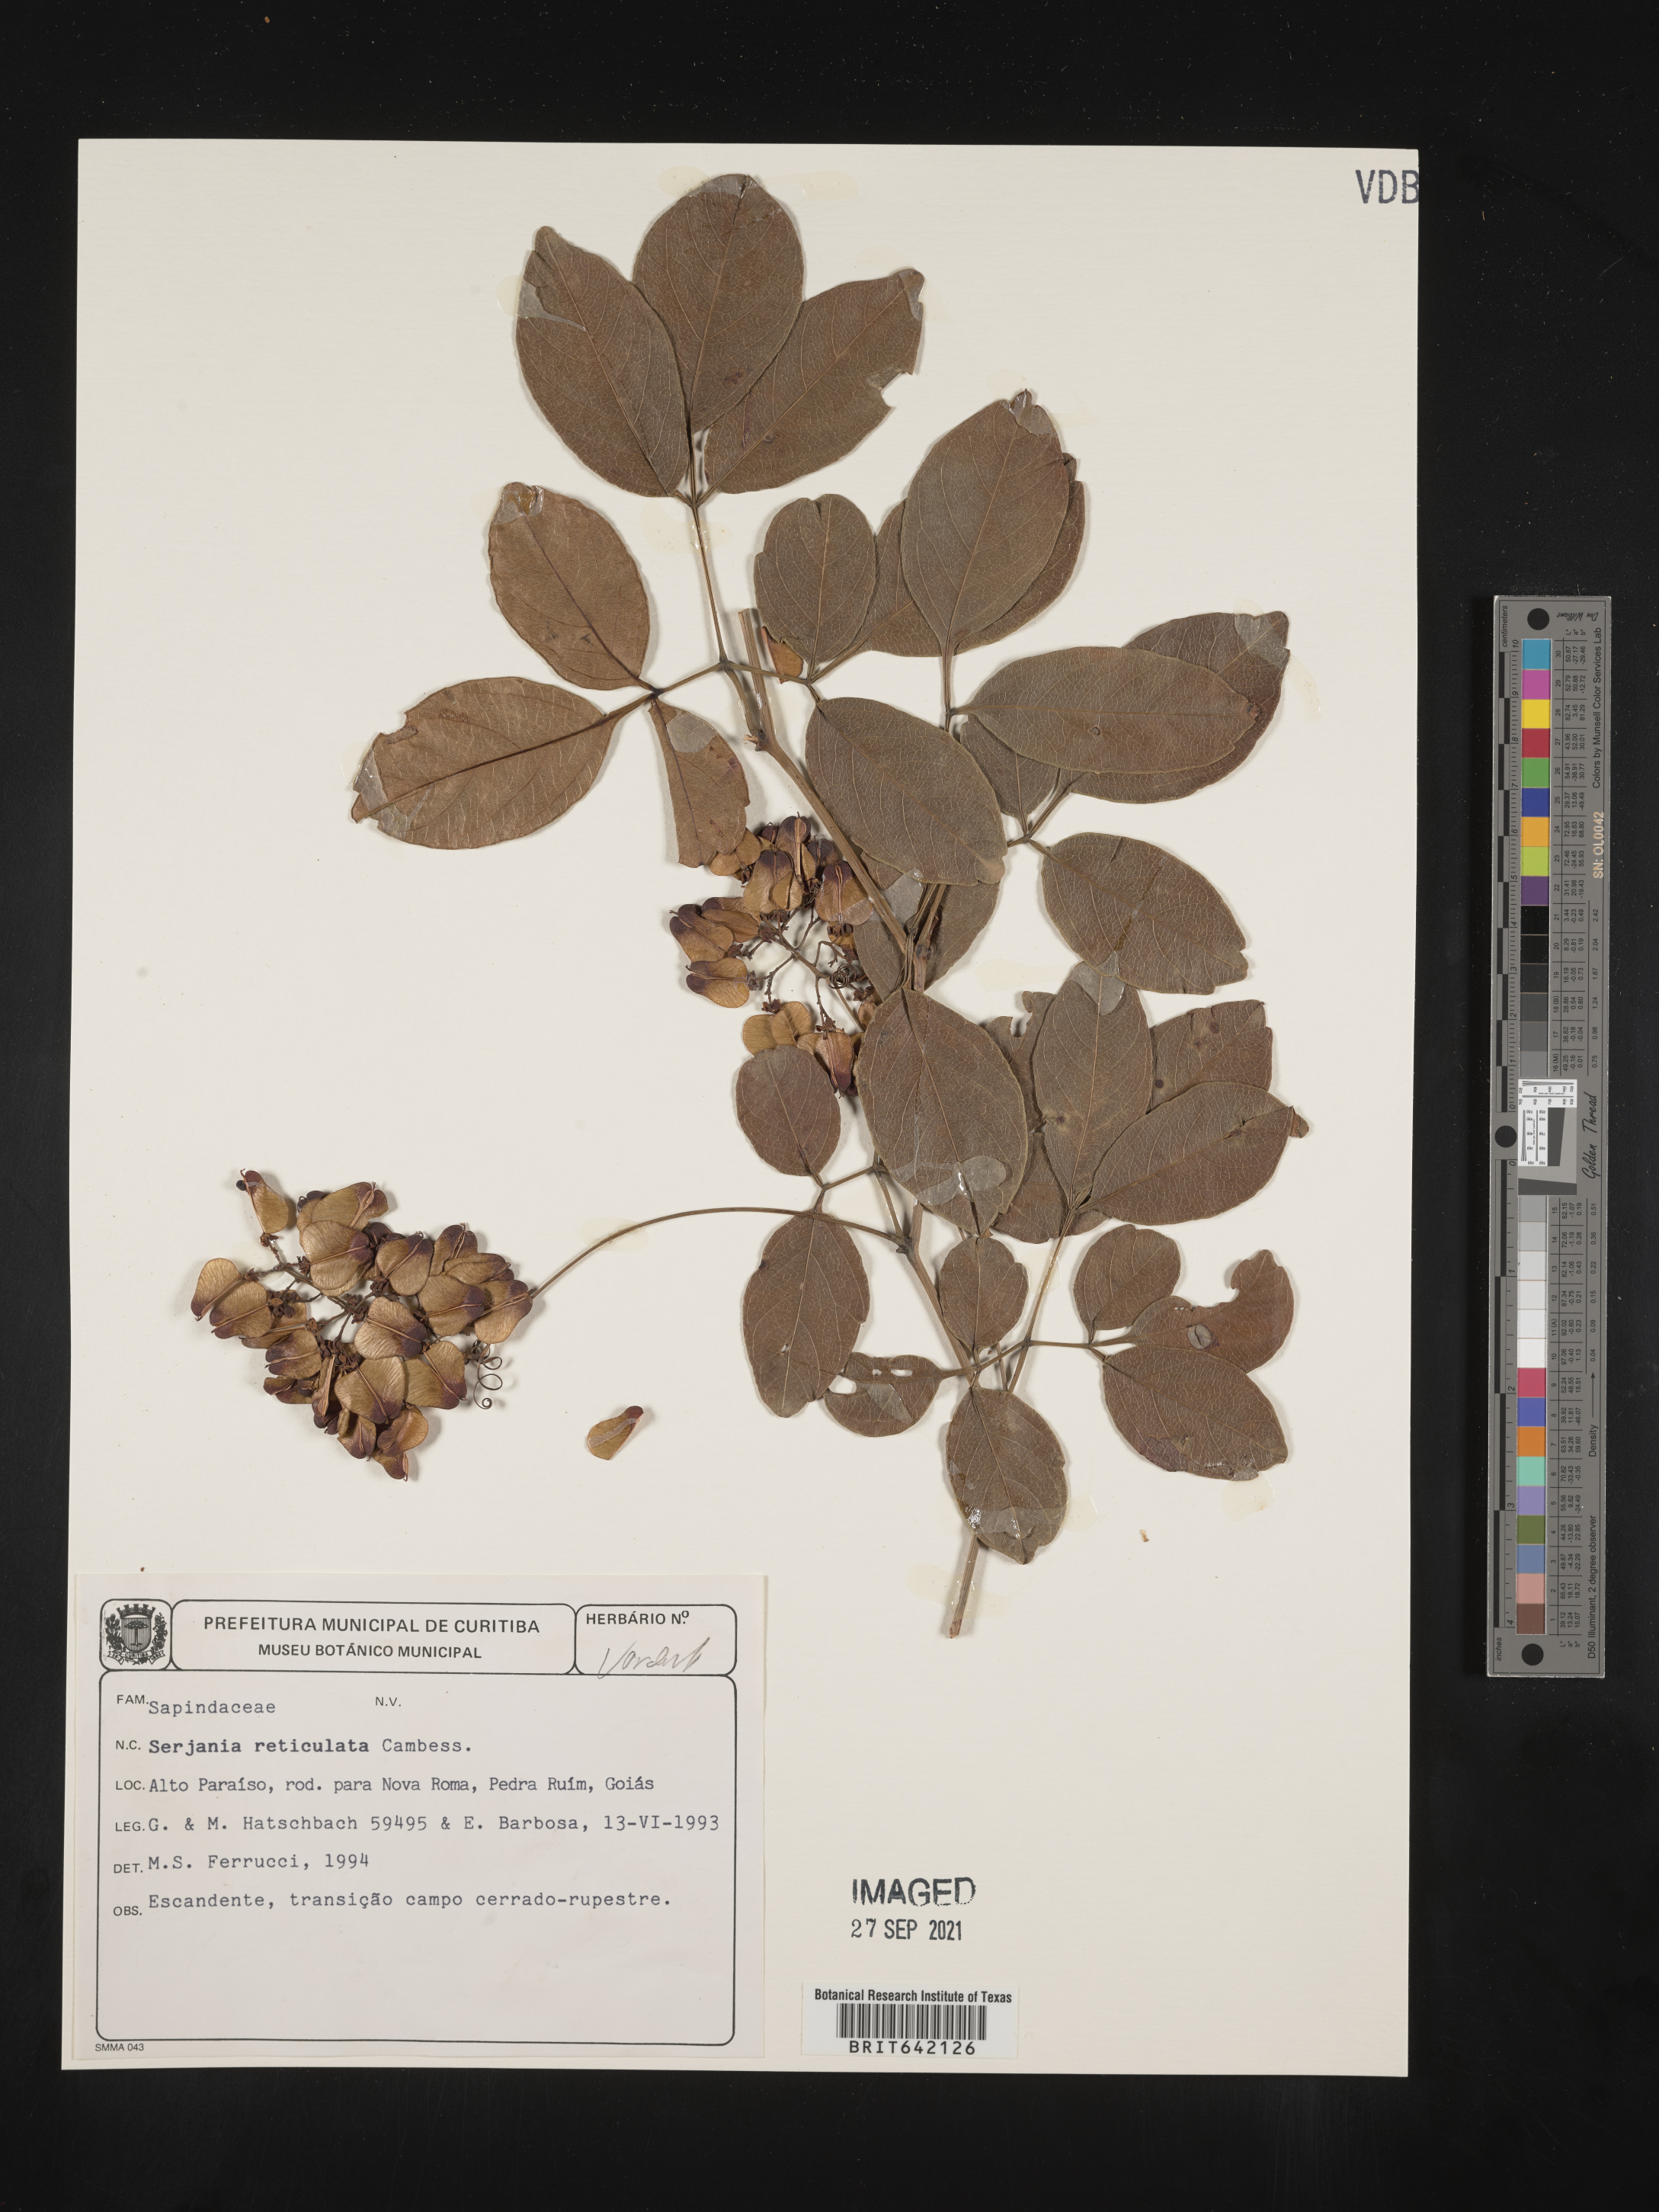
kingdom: Plantae
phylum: Tracheophyta
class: Magnoliopsida
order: Sapindales
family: Sapindaceae
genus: Serjania
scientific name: Serjania
